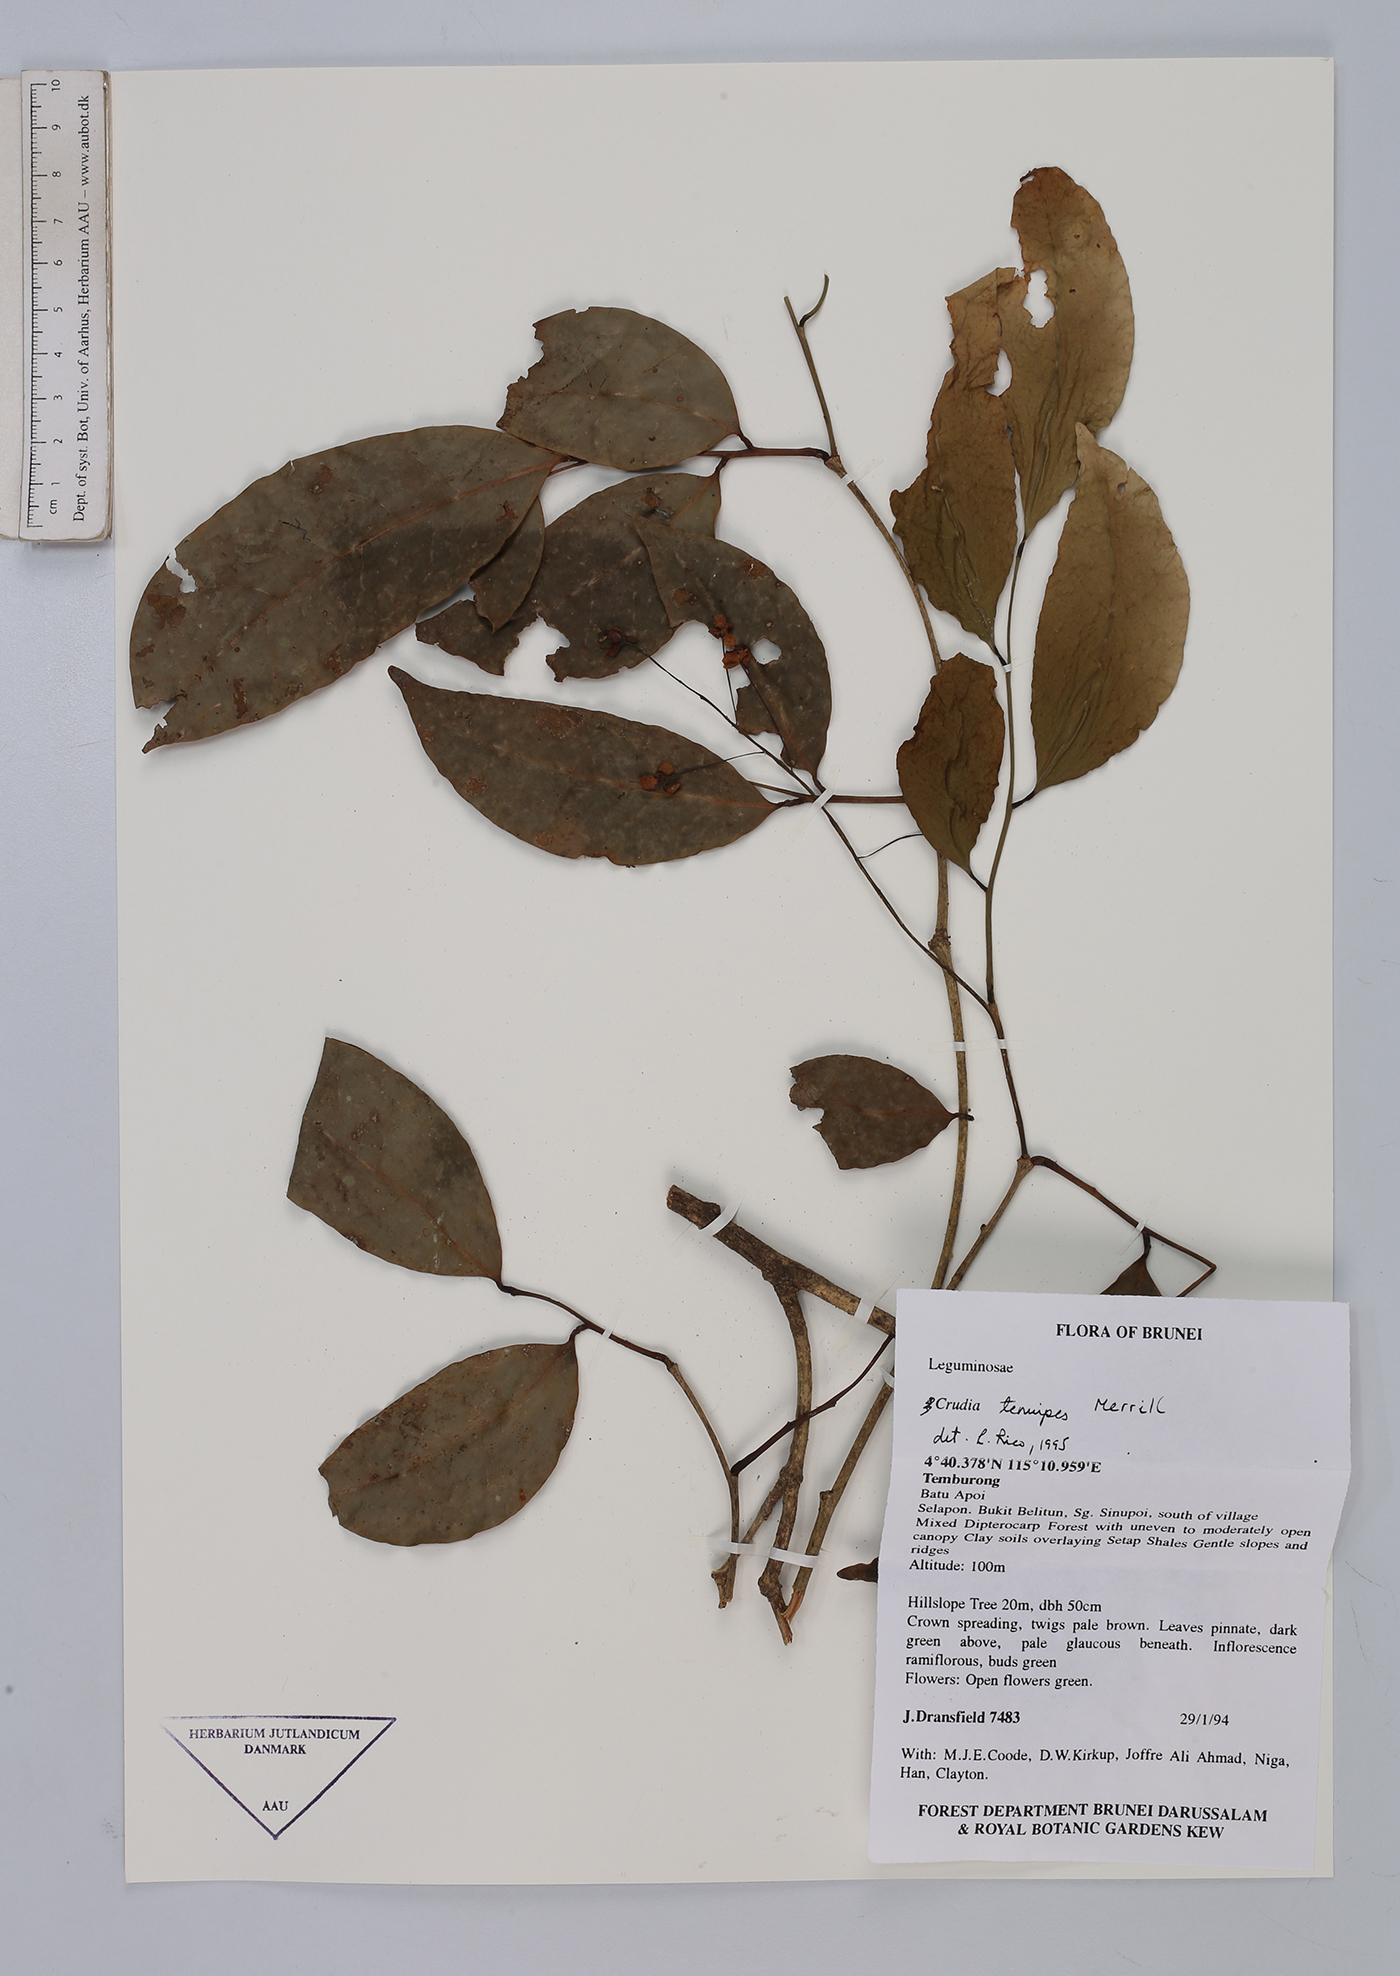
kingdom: Plantae
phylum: Tracheophyta
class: Magnoliopsida
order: Fabales
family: Fabaceae
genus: Crudia
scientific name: Crudia tenuipes
